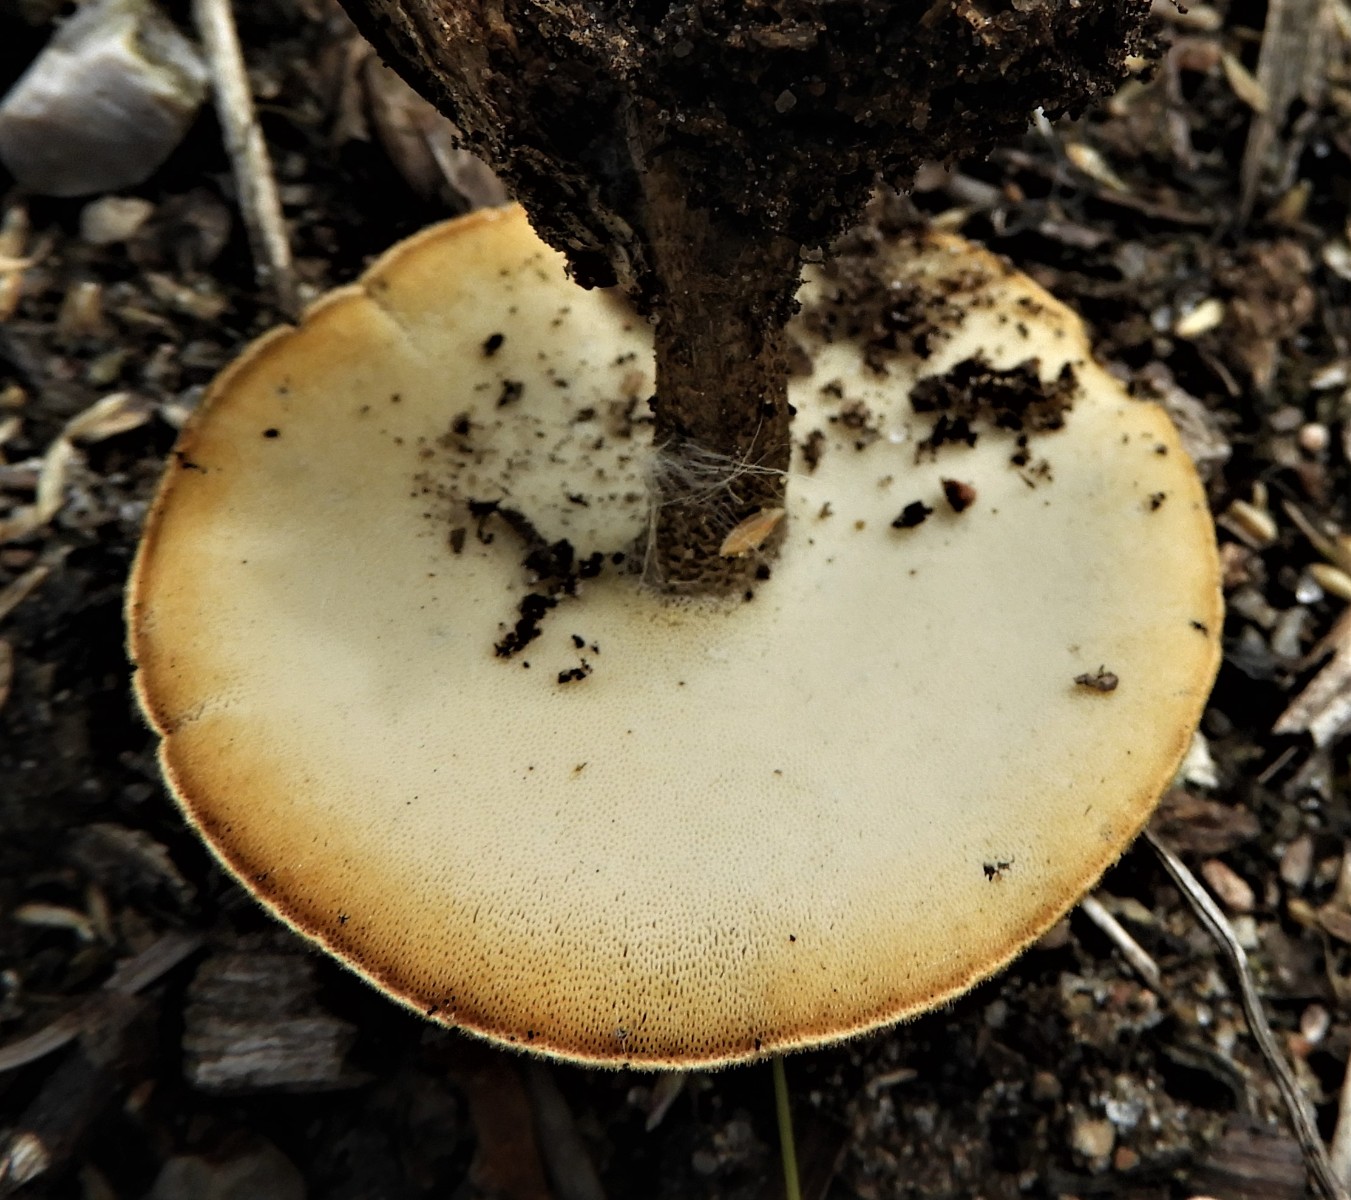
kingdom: Fungi
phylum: Basidiomycota
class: Agaricomycetes
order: Polyporales
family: Polyporaceae
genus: Lentinus
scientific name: Lentinus substrictus
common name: forårs-stilkporesvamp
